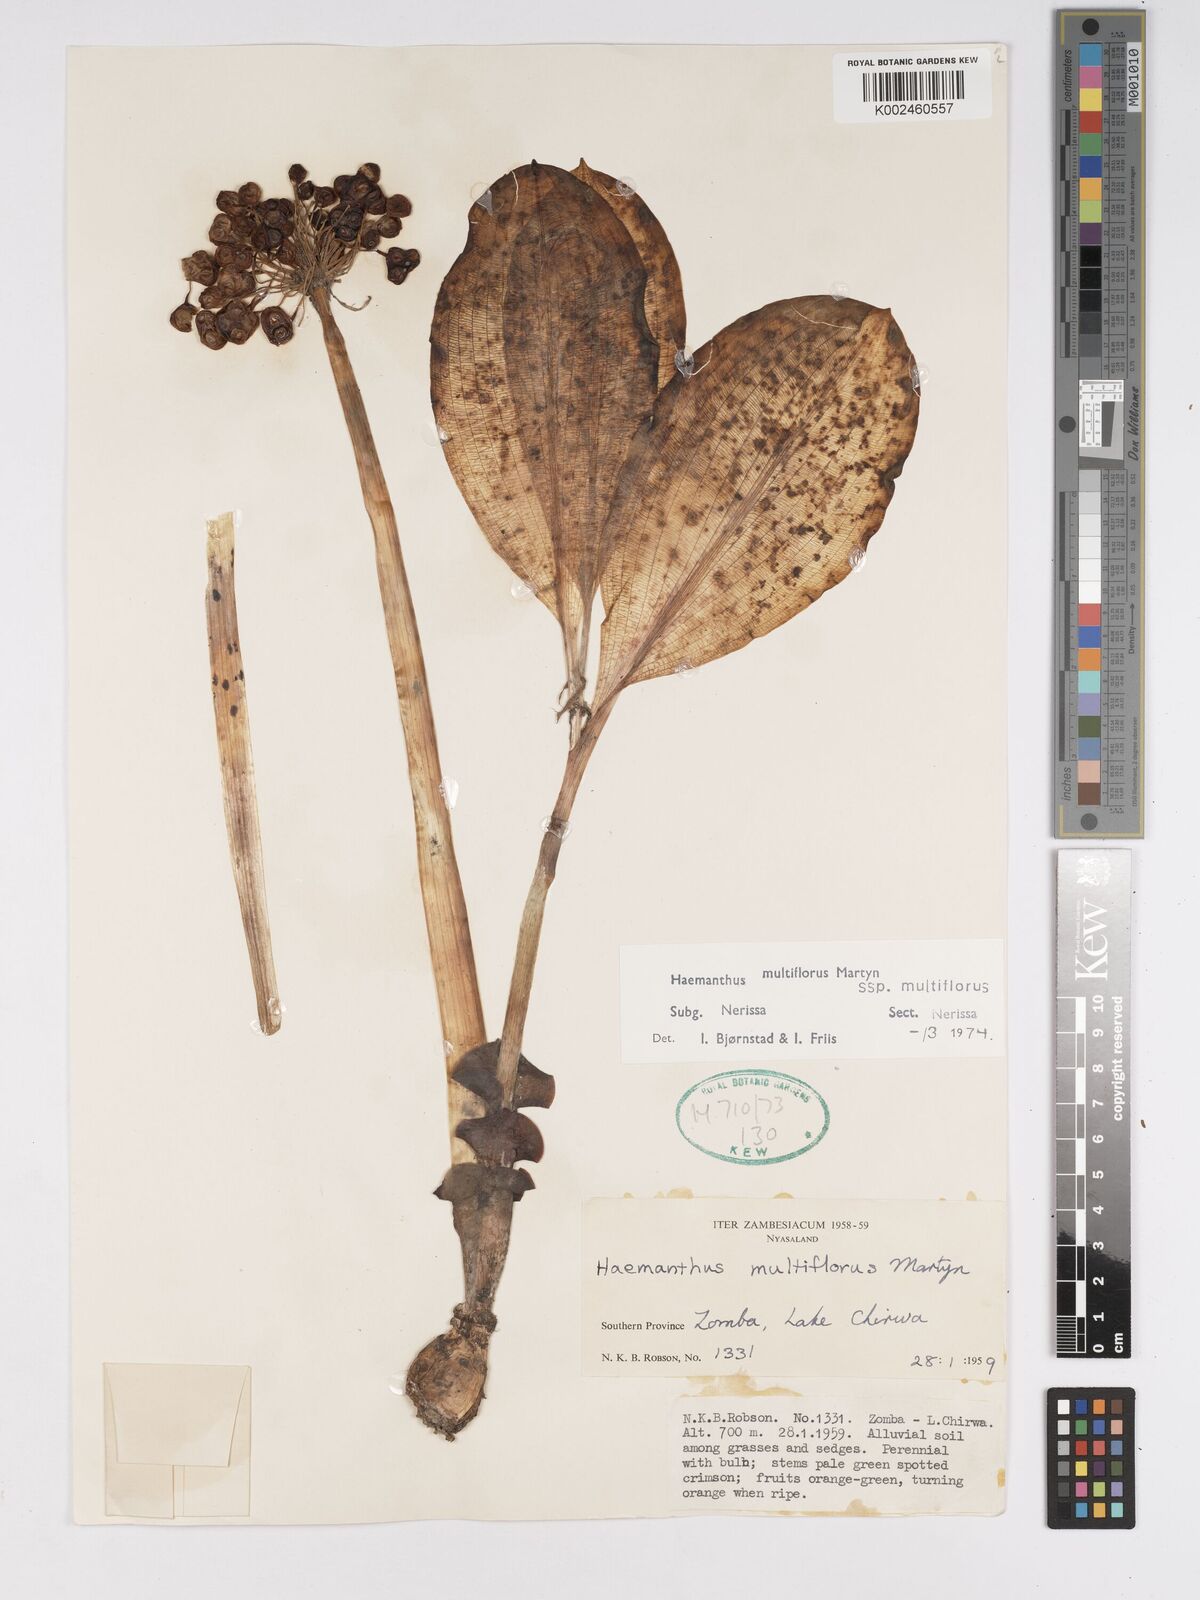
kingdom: Plantae
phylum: Tracheophyta
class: Liliopsida
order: Asparagales
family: Amaryllidaceae
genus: Scadoxus
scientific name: Scadoxus multiflorus
